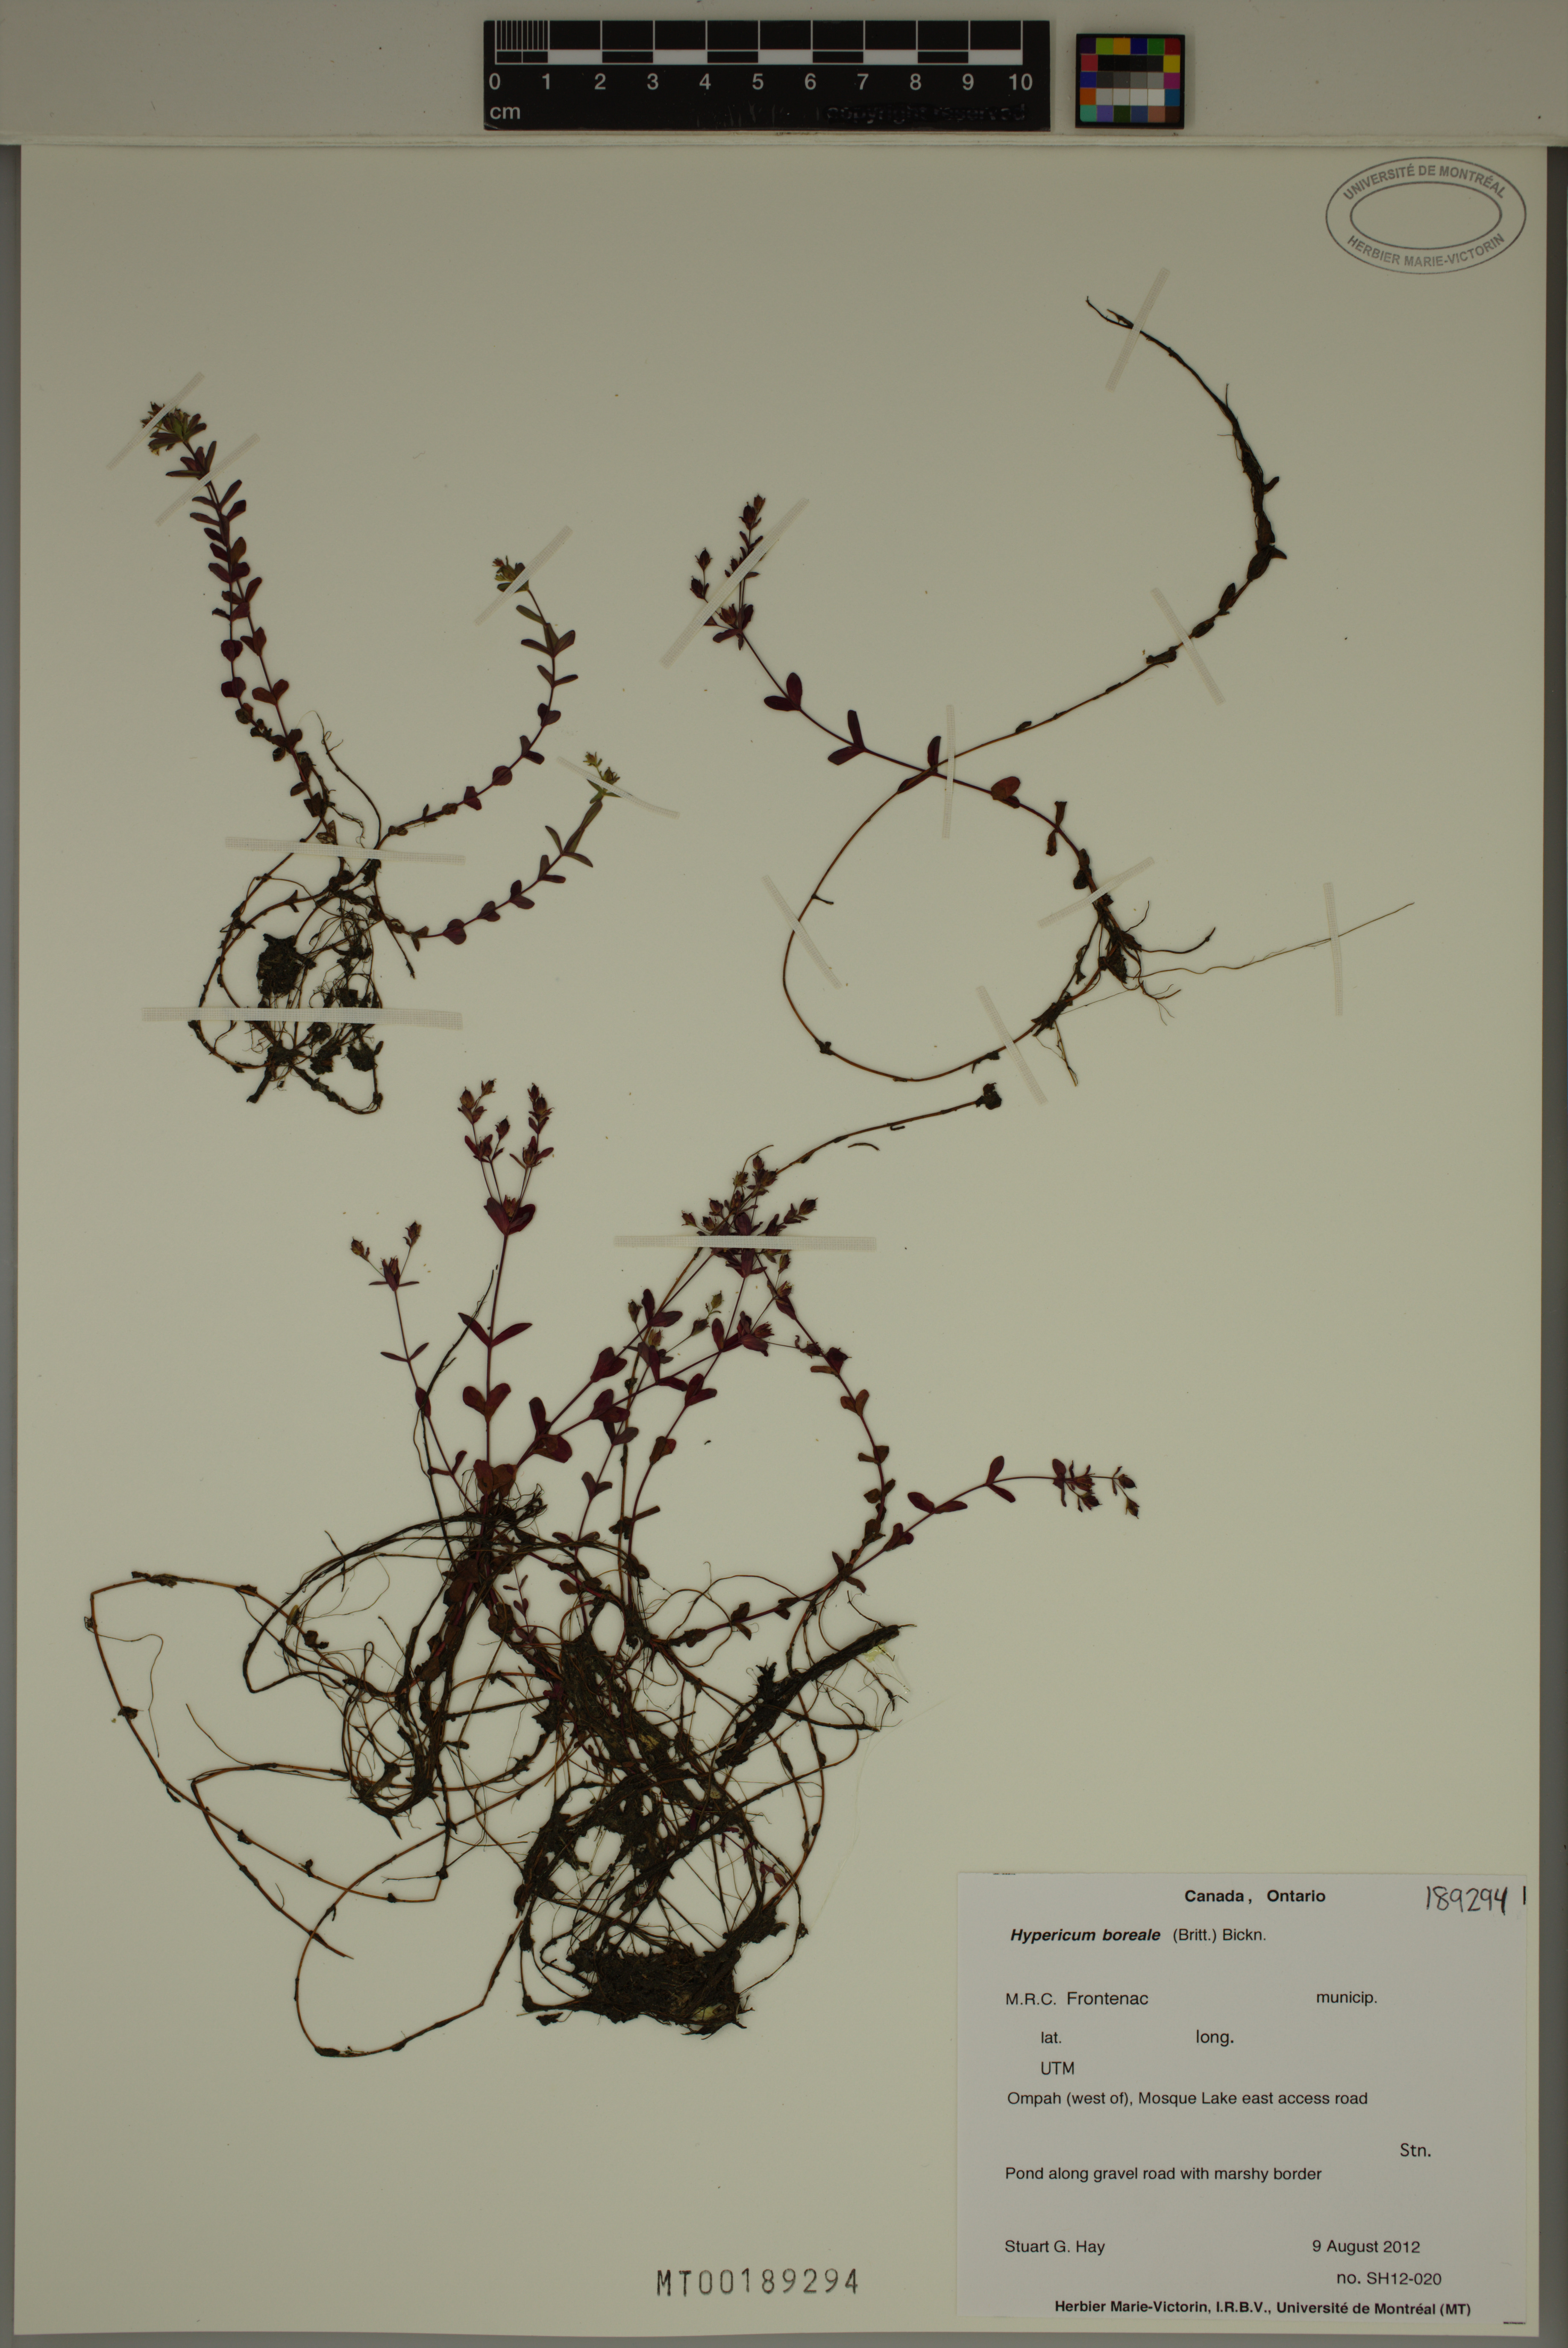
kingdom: Plantae
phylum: Tracheophyta
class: Magnoliopsida
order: Malpighiales
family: Hypericaceae
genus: Hypericum
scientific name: Hypericum boreale
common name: Northern bog st. john's-wort
